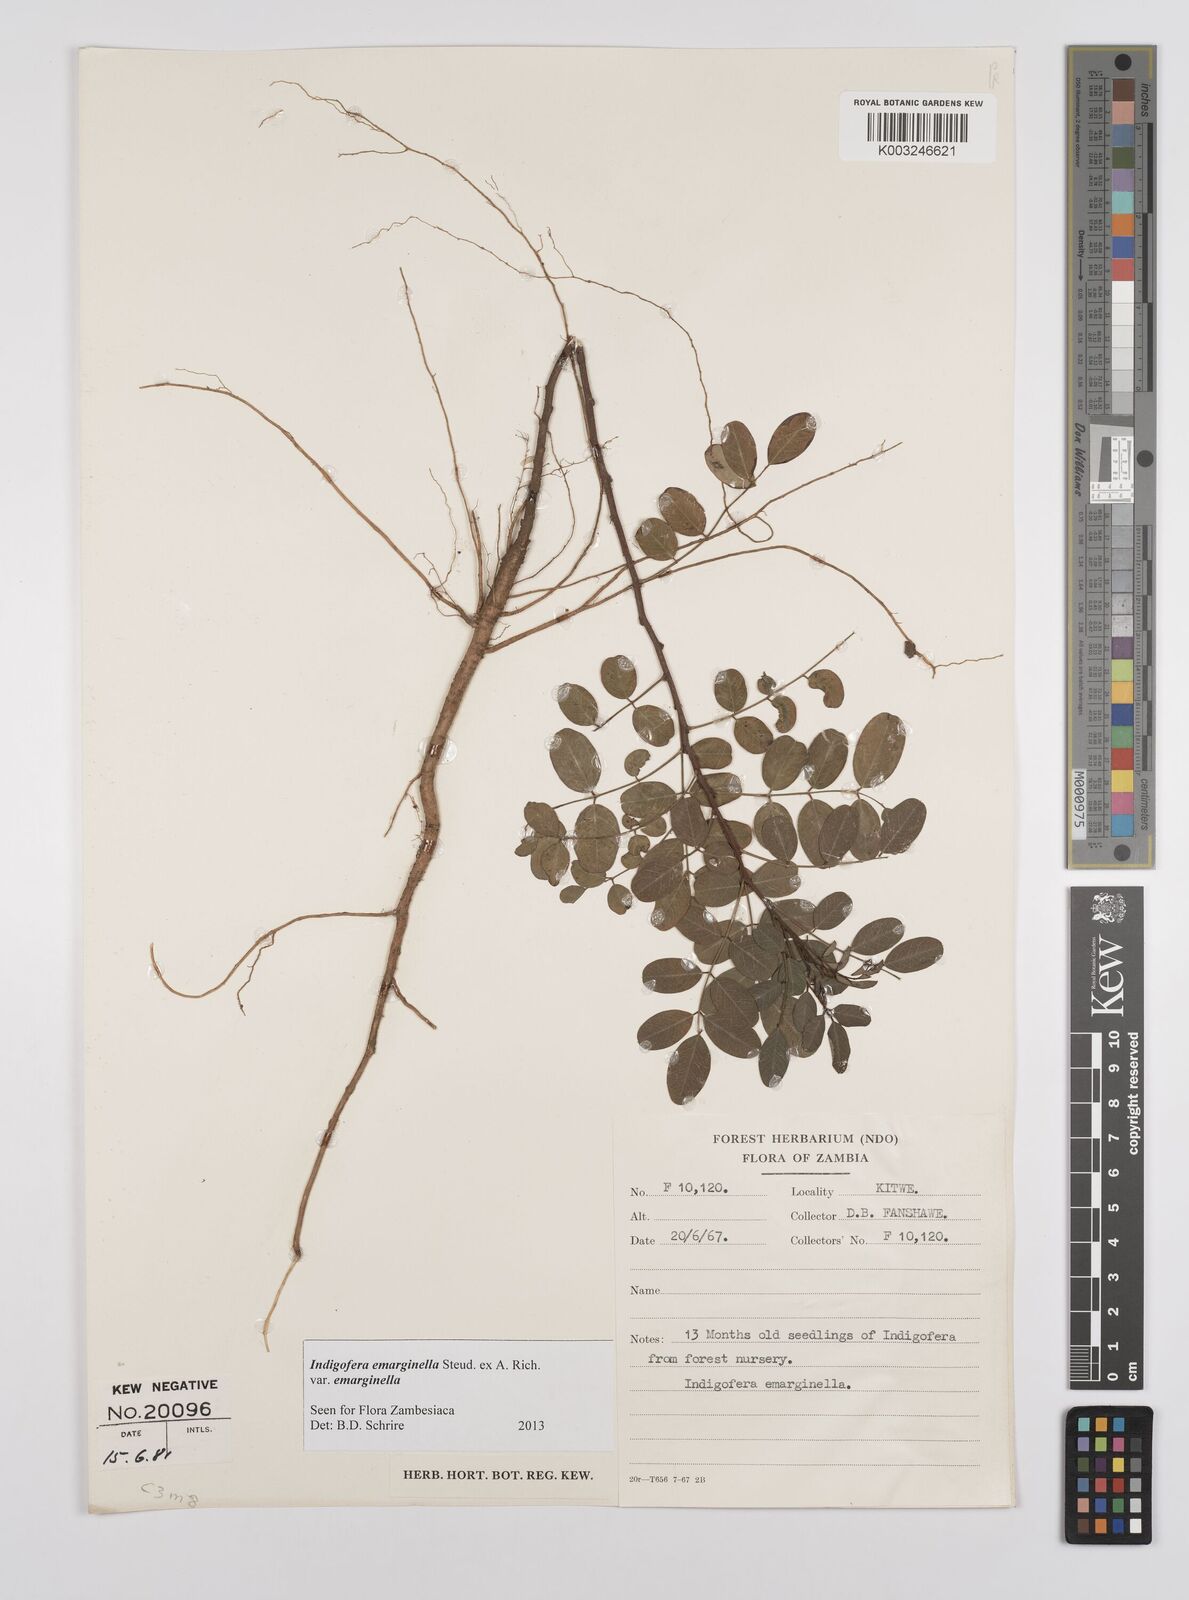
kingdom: Plantae
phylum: Tracheophyta
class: Magnoliopsida
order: Fabales
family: Fabaceae
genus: Indigofera
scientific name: Indigofera emarginella
